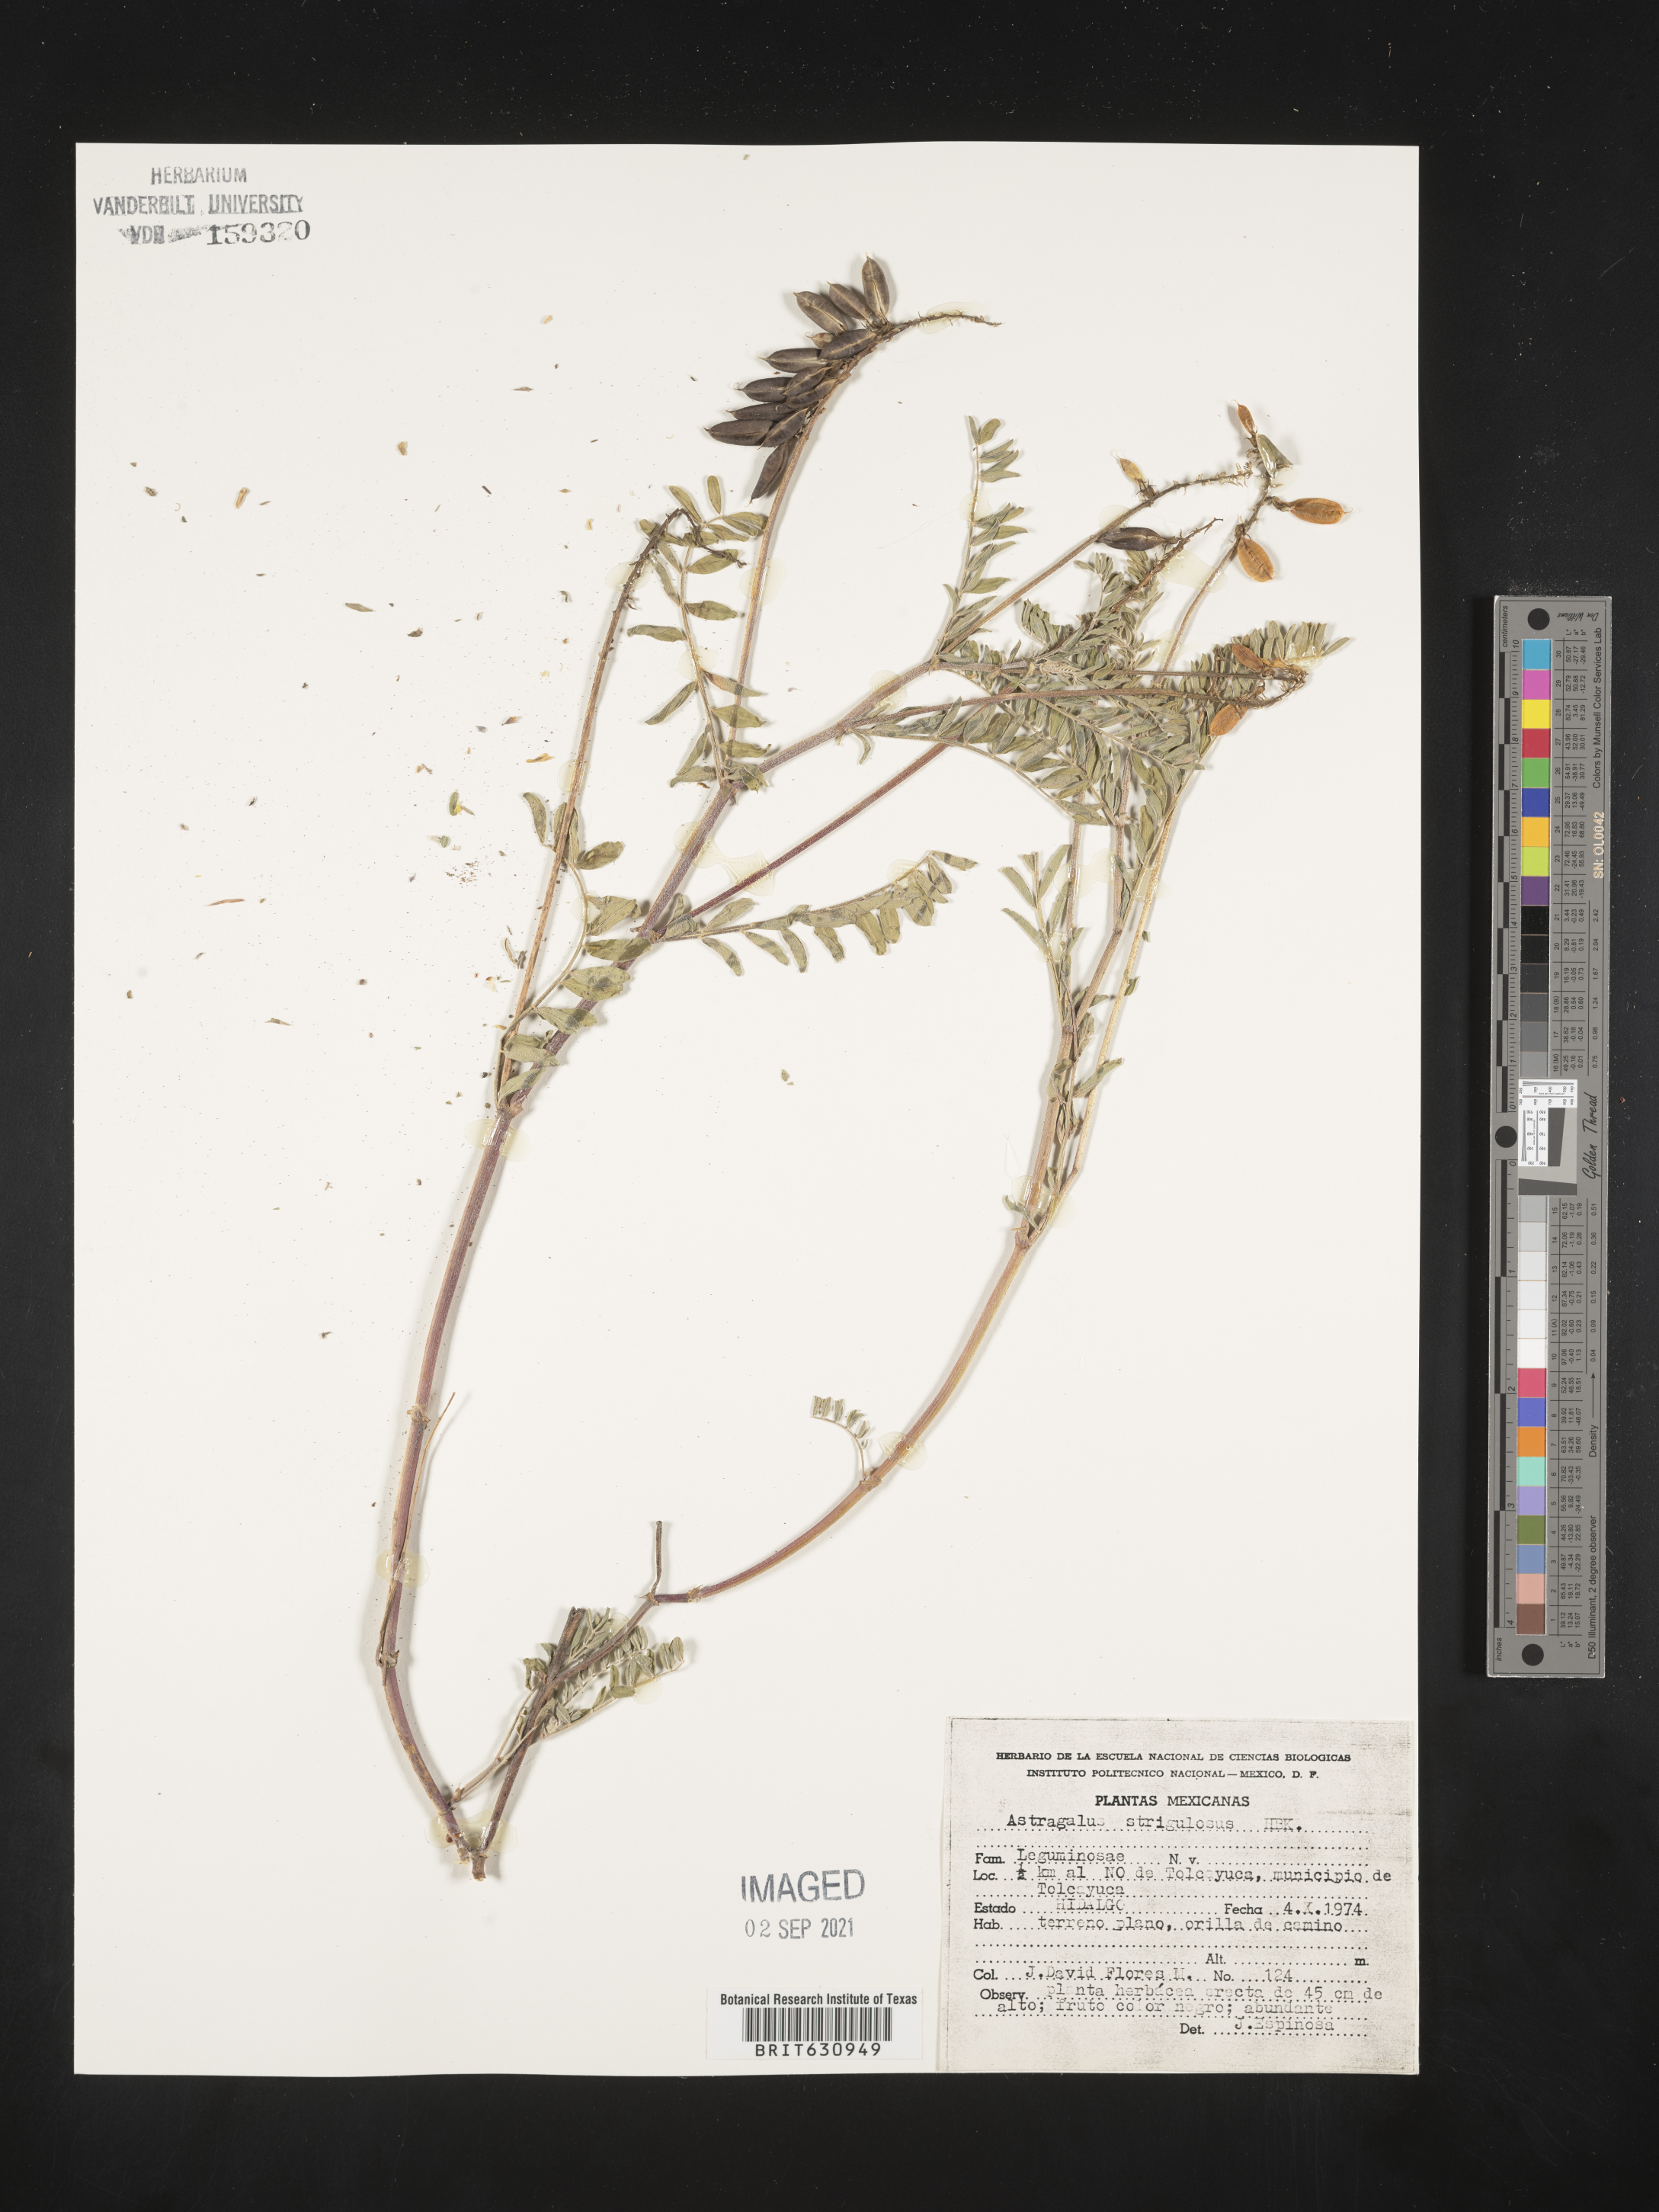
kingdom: Plantae
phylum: Tracheophyta
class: Magnoliopsida
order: Fabales
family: Fabaceae
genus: Astragalus
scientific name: Astragalus
